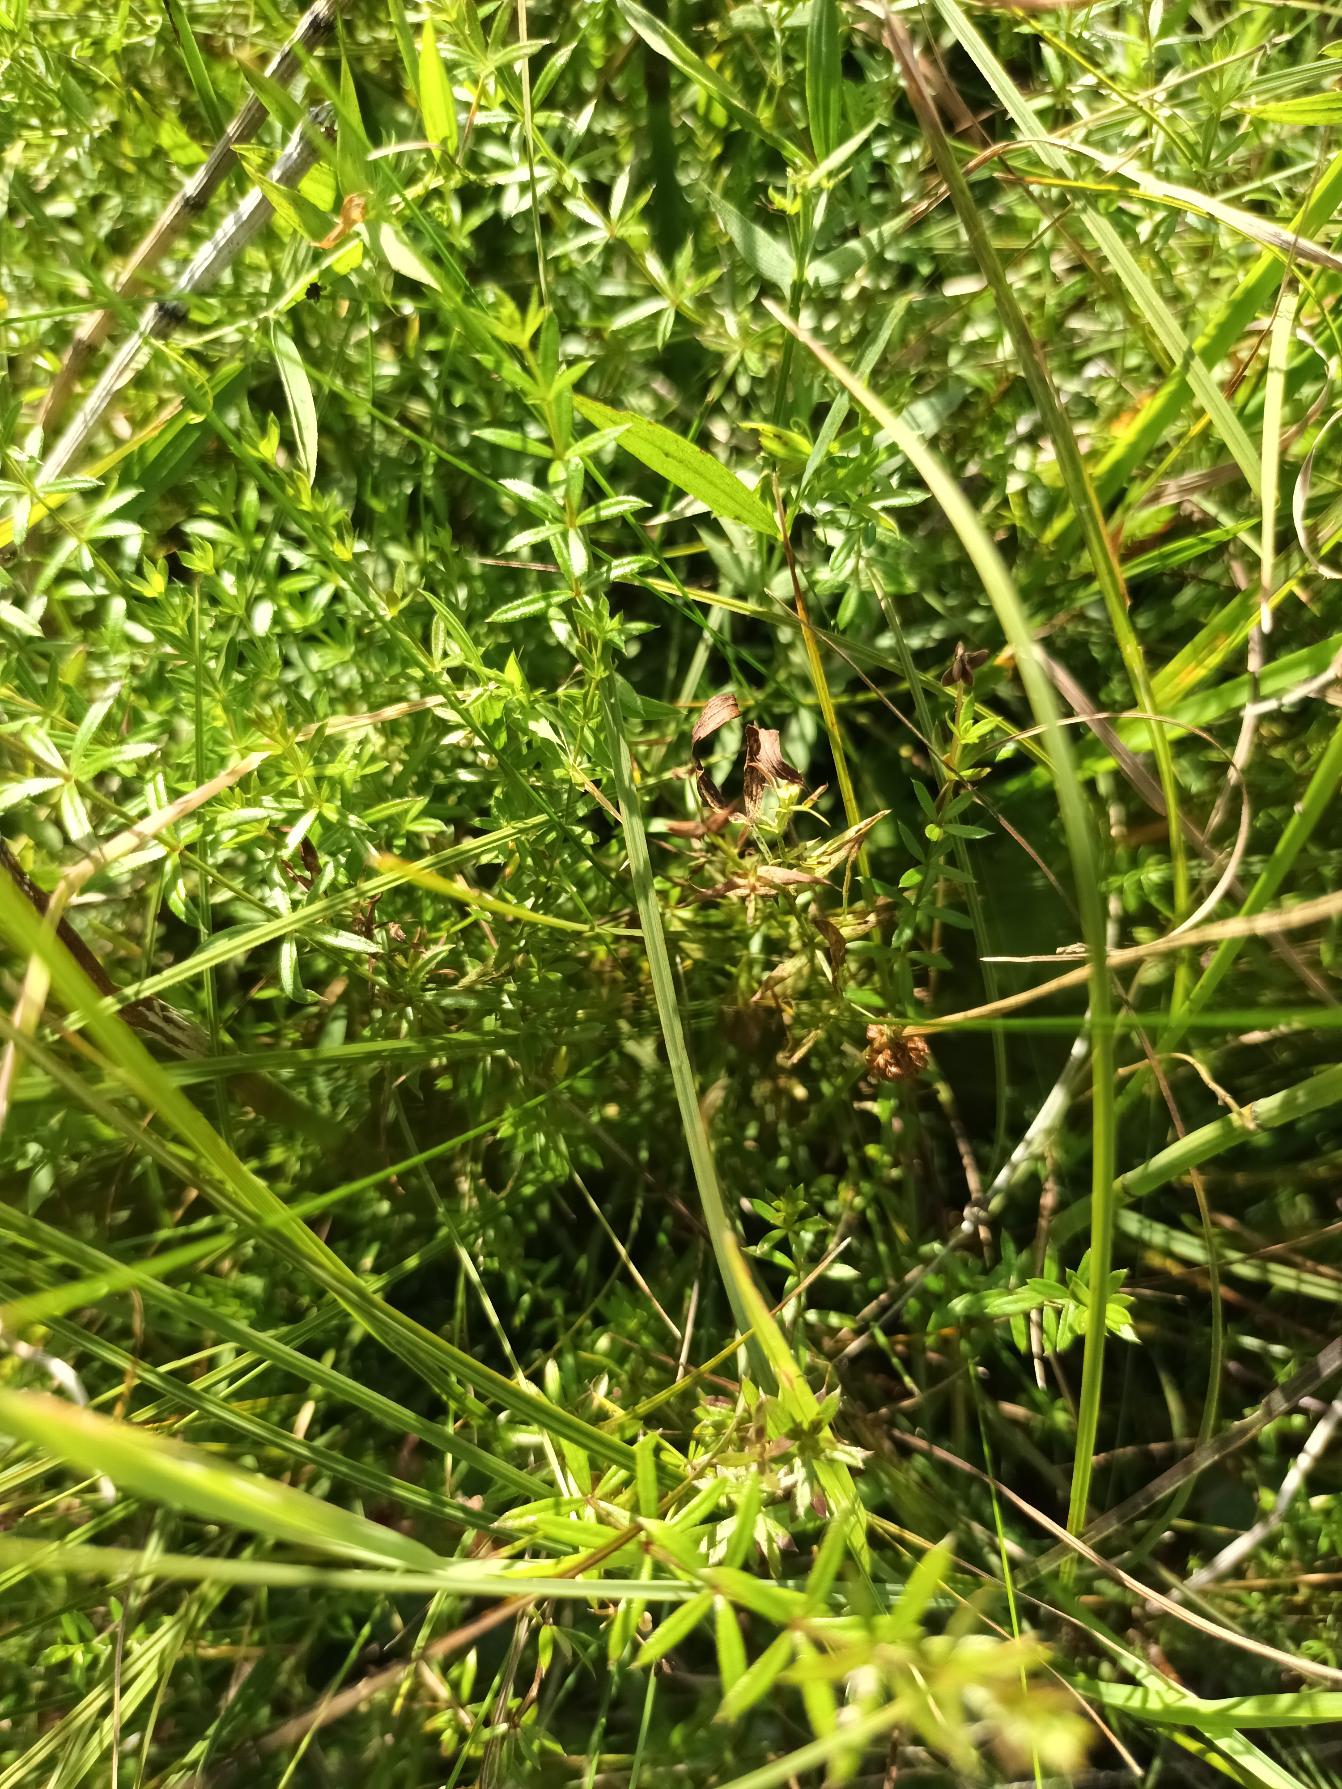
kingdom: Plantae
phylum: Tracheophyta
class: Magnoliopsida
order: Gentianales
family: Rubiaceae
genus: Galium
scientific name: Galium uliginosum
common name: Sump-snerre
